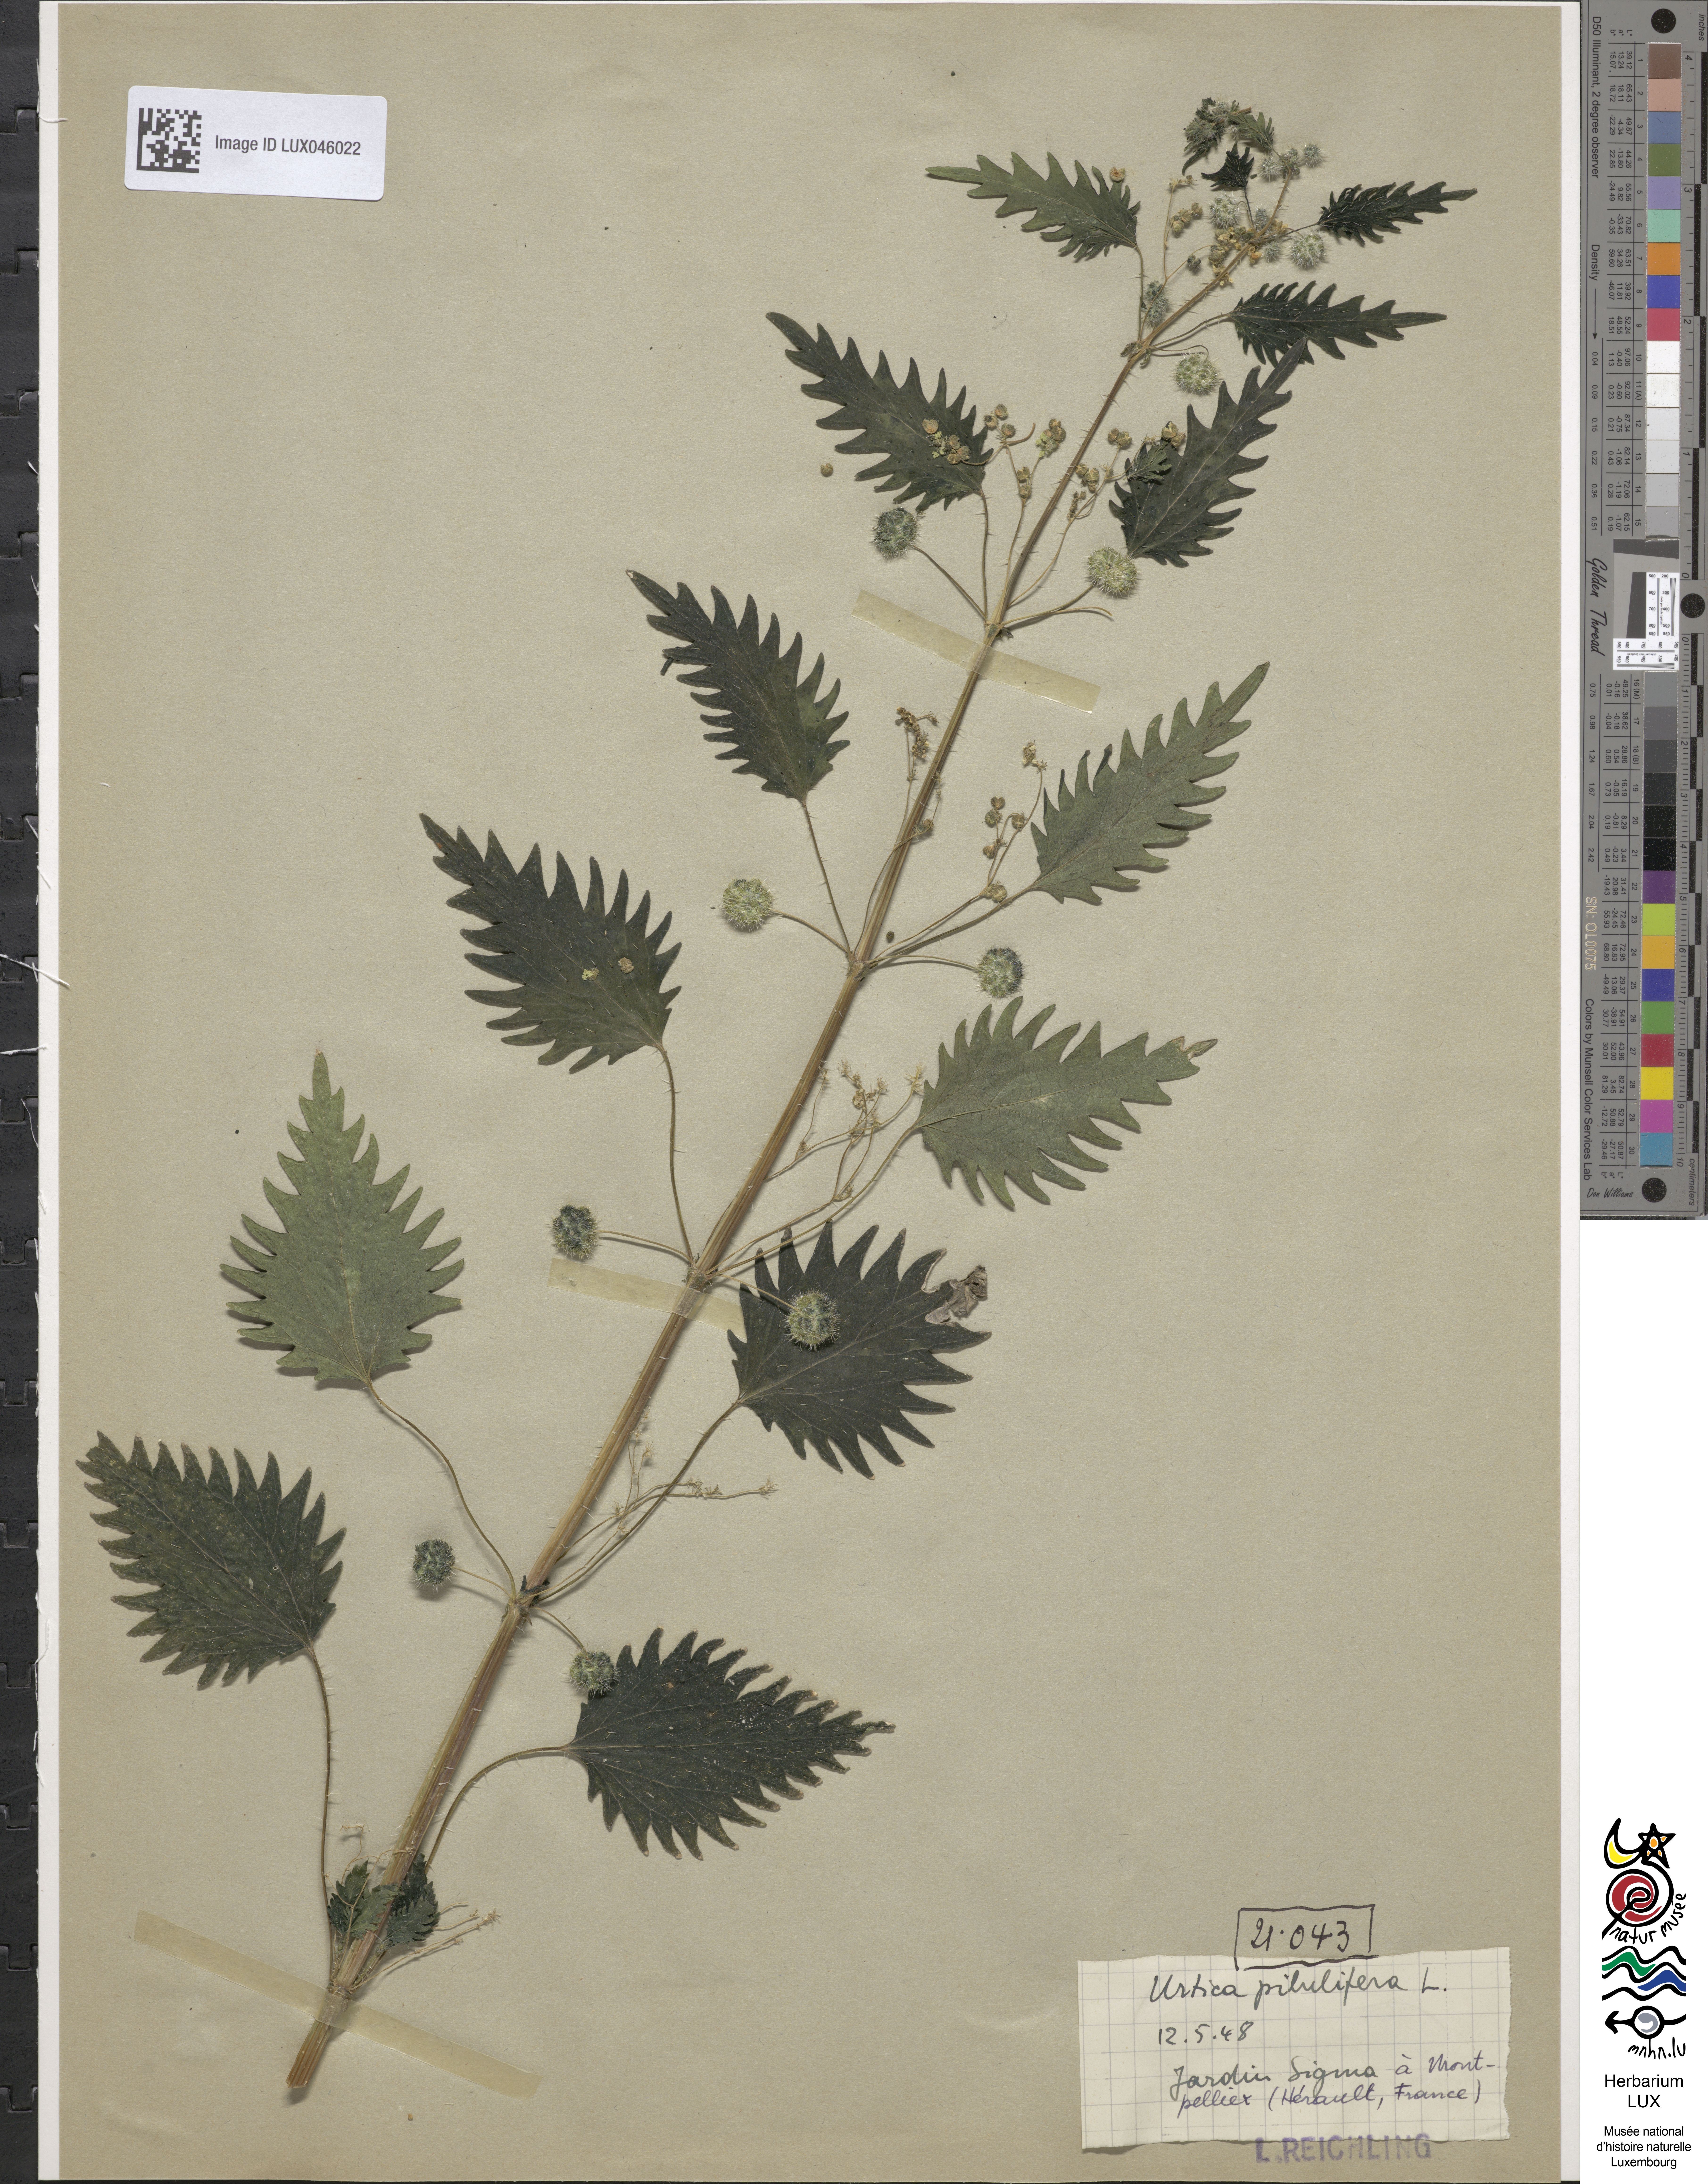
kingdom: Plantae
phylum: Tracheophyta
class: Magnoliopsida
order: Rosales
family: Urticaceae
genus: Urtica
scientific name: Urtica pilulifera
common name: Roman nettle
